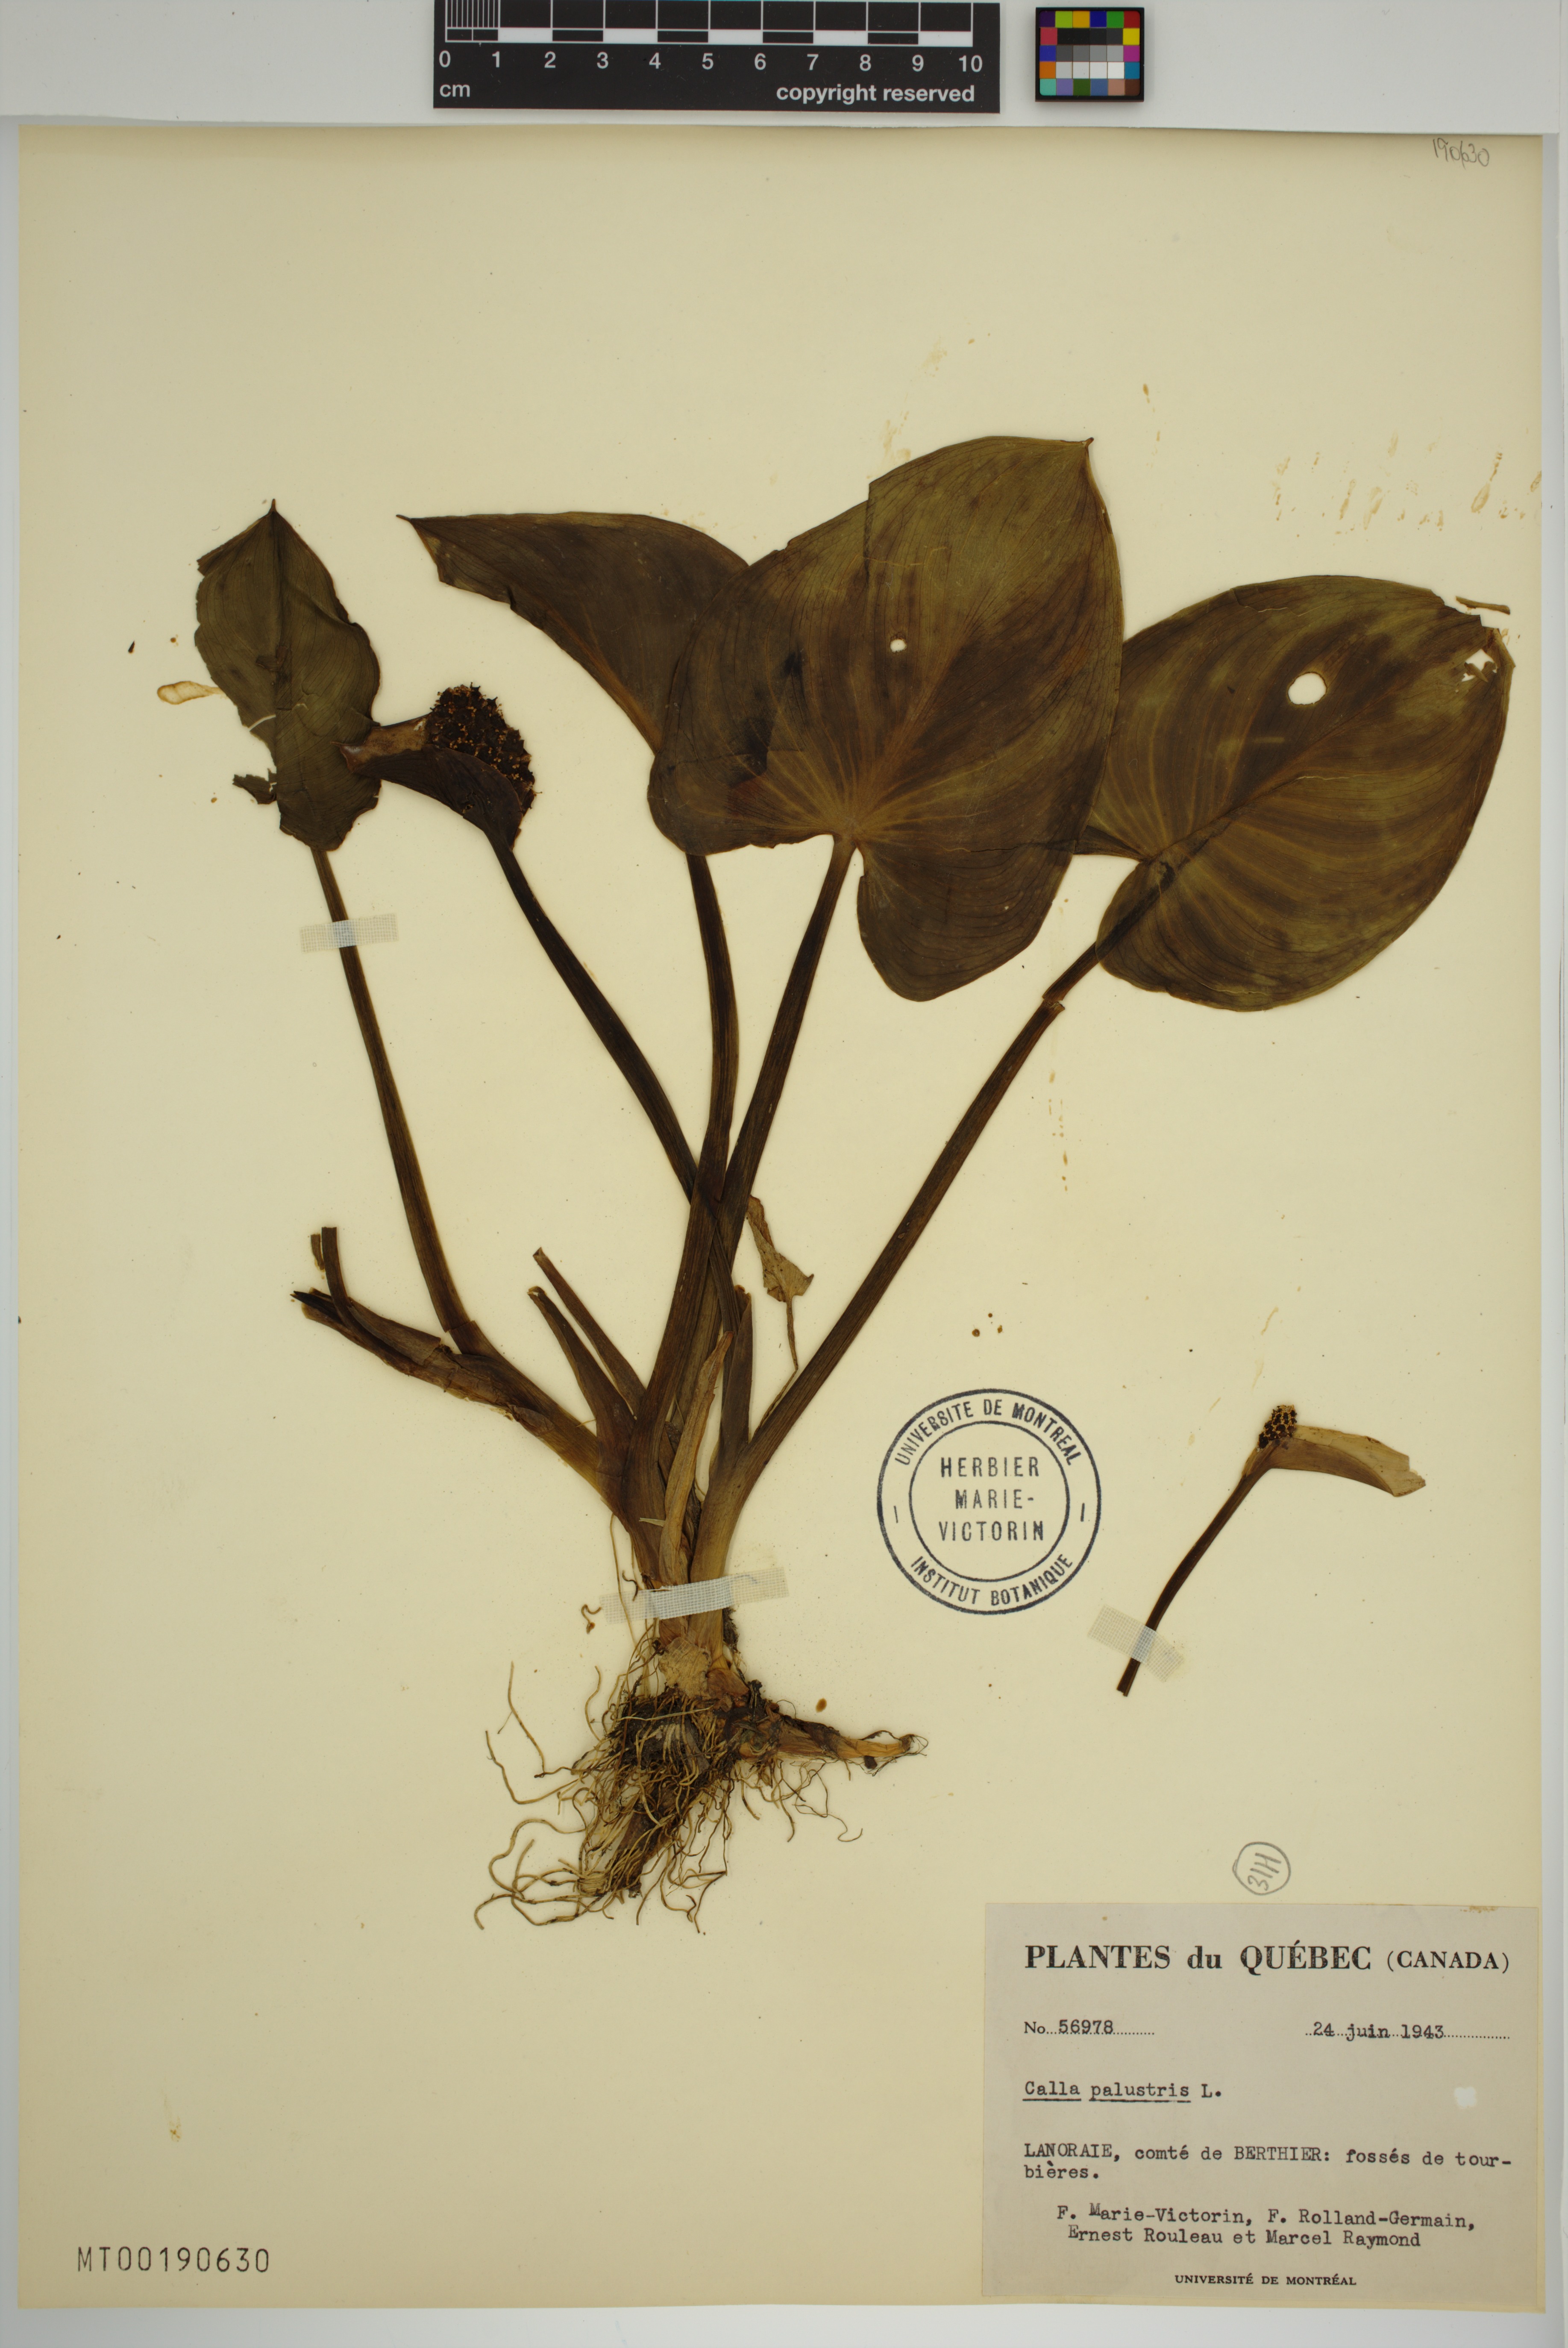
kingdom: Plantae
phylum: Tracheophyta
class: Liliopsida
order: Alismatales
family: Araceae
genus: Calla
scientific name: Calla palustris
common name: Bog arum
